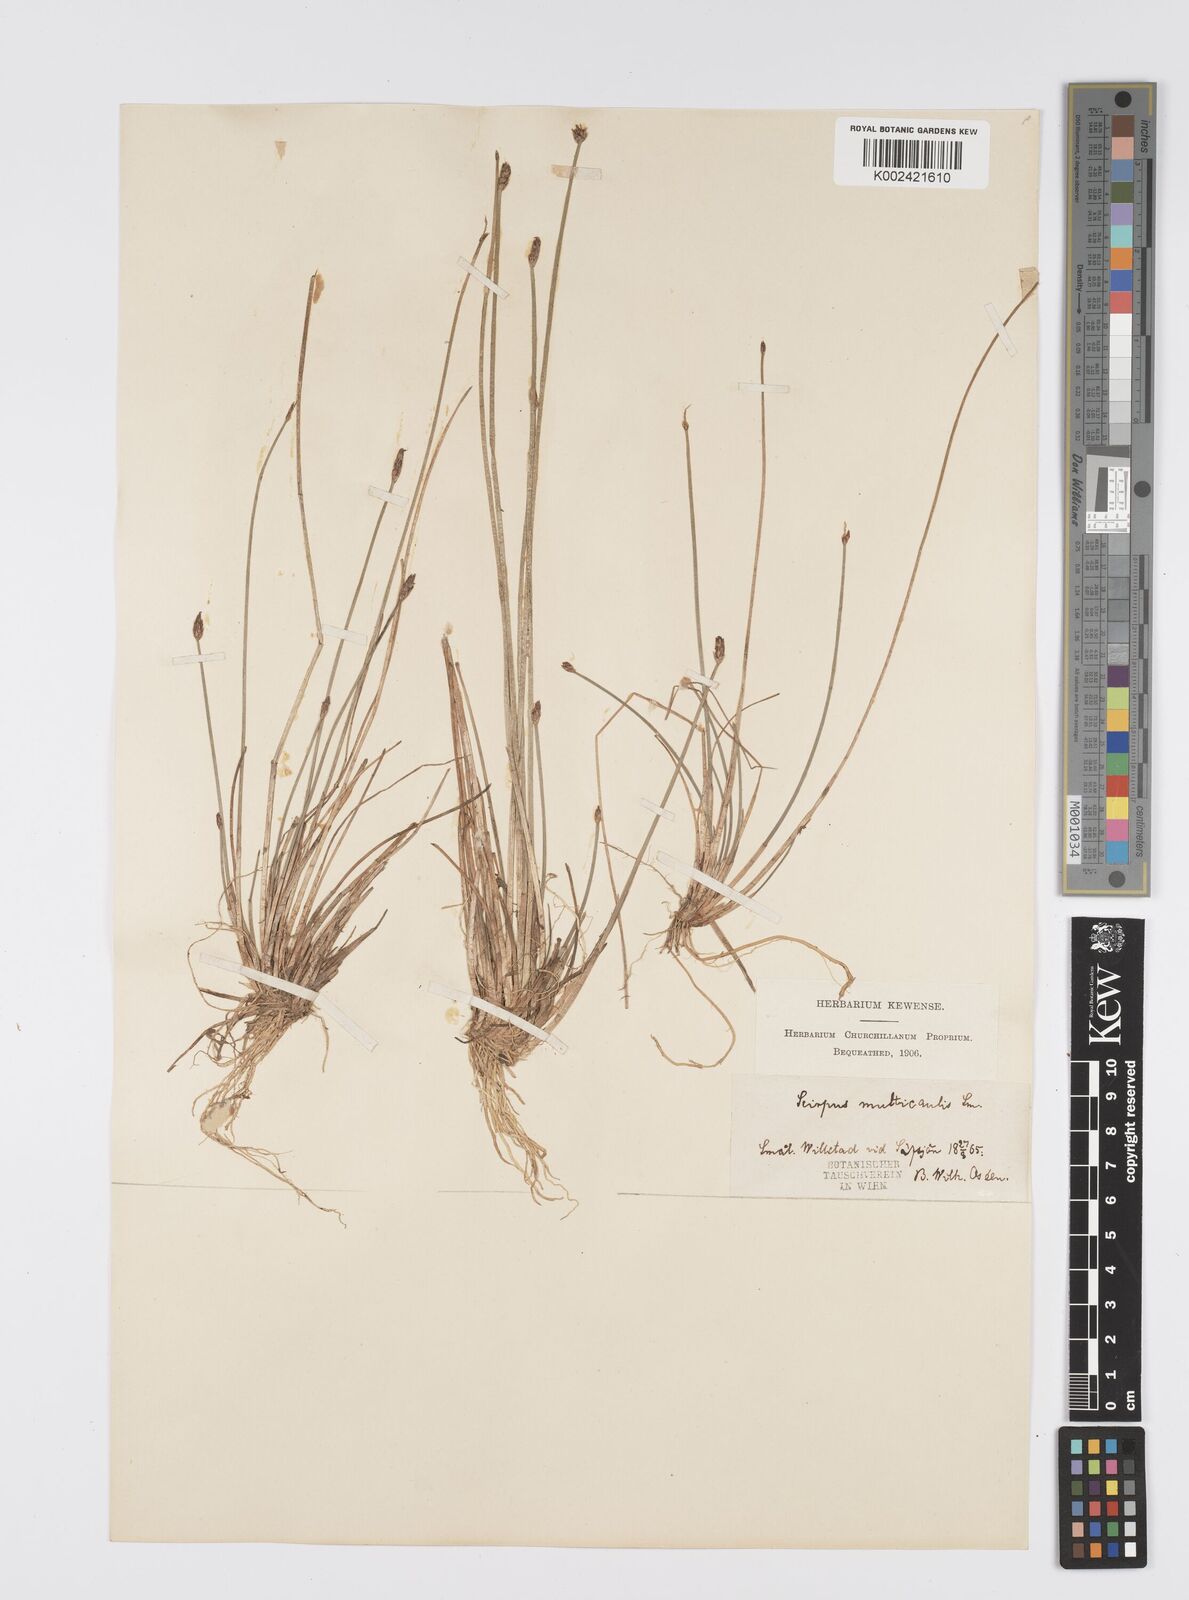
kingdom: Plantae
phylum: Tracheophyta
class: Liliopsida
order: Poales
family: Cyperaceae
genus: Eleocharis
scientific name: Eleocharis multicaulis
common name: Many-stalked spike-rush
